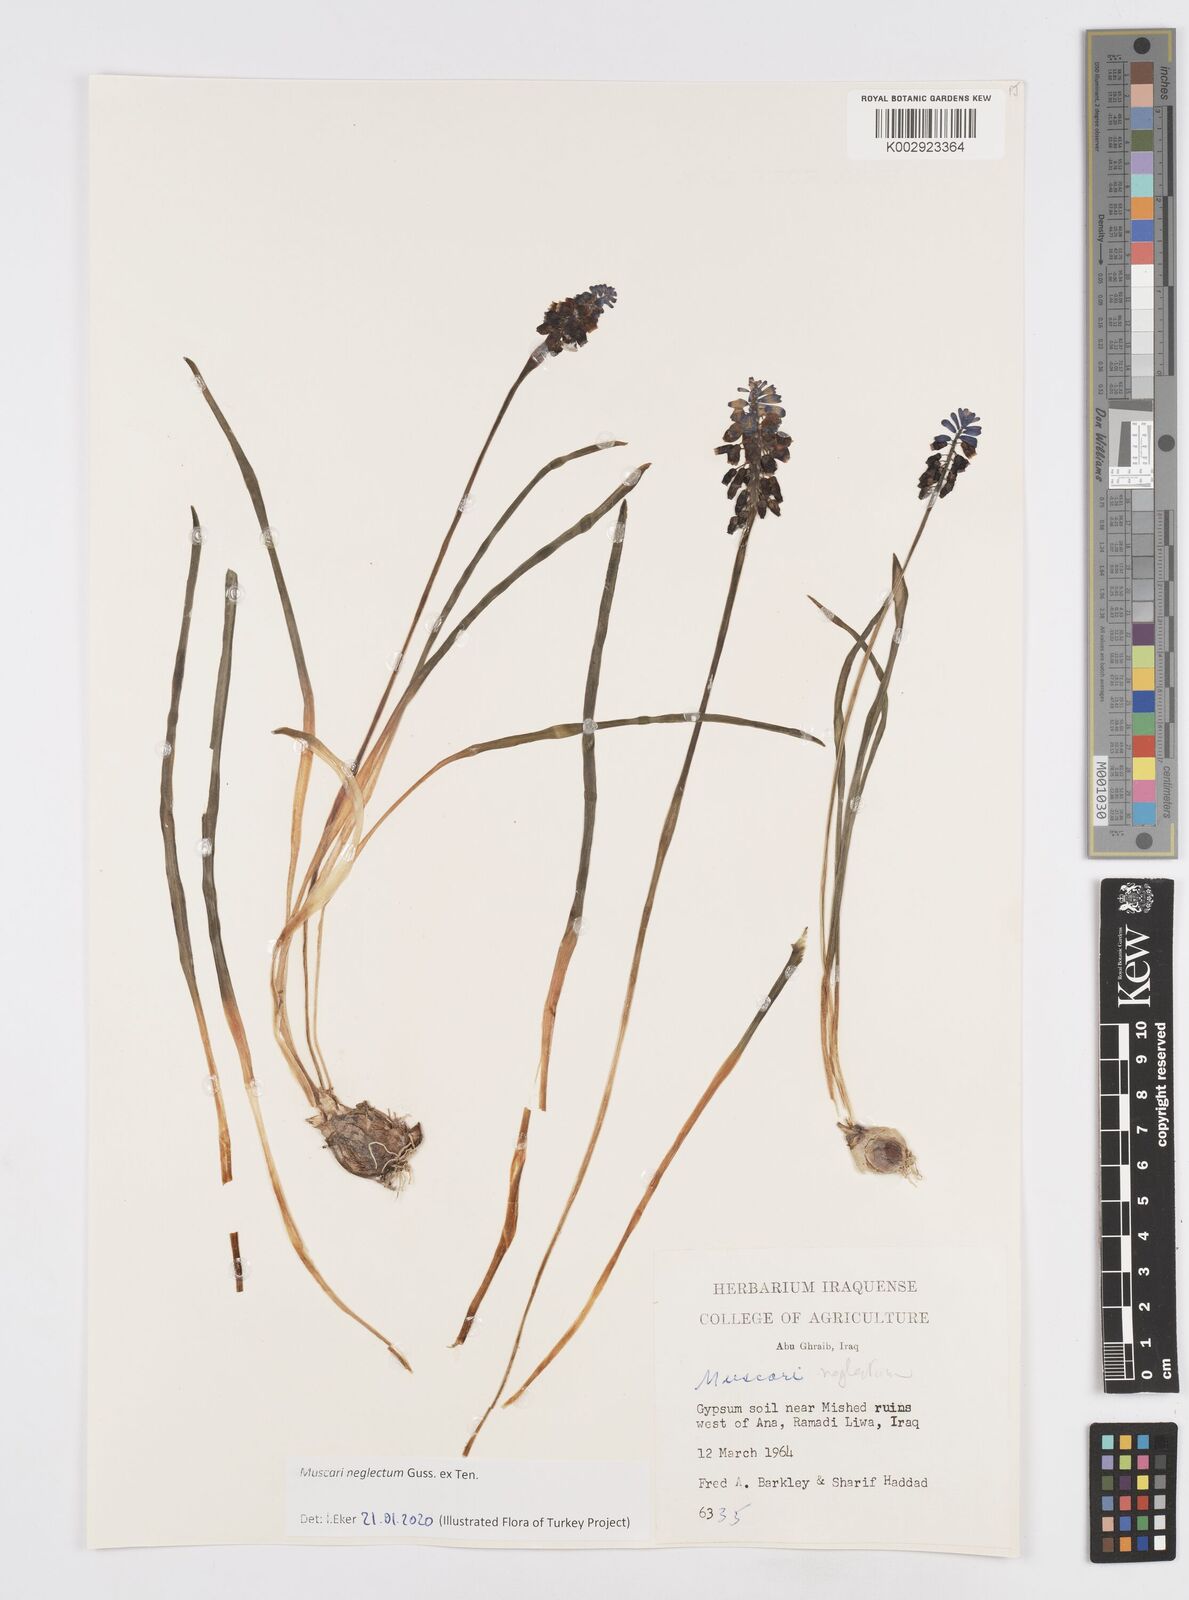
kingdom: Plantae
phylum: Tracheophyta
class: Liliopsida
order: Asparagales
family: Asparagaceae
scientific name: Asparagaceae
